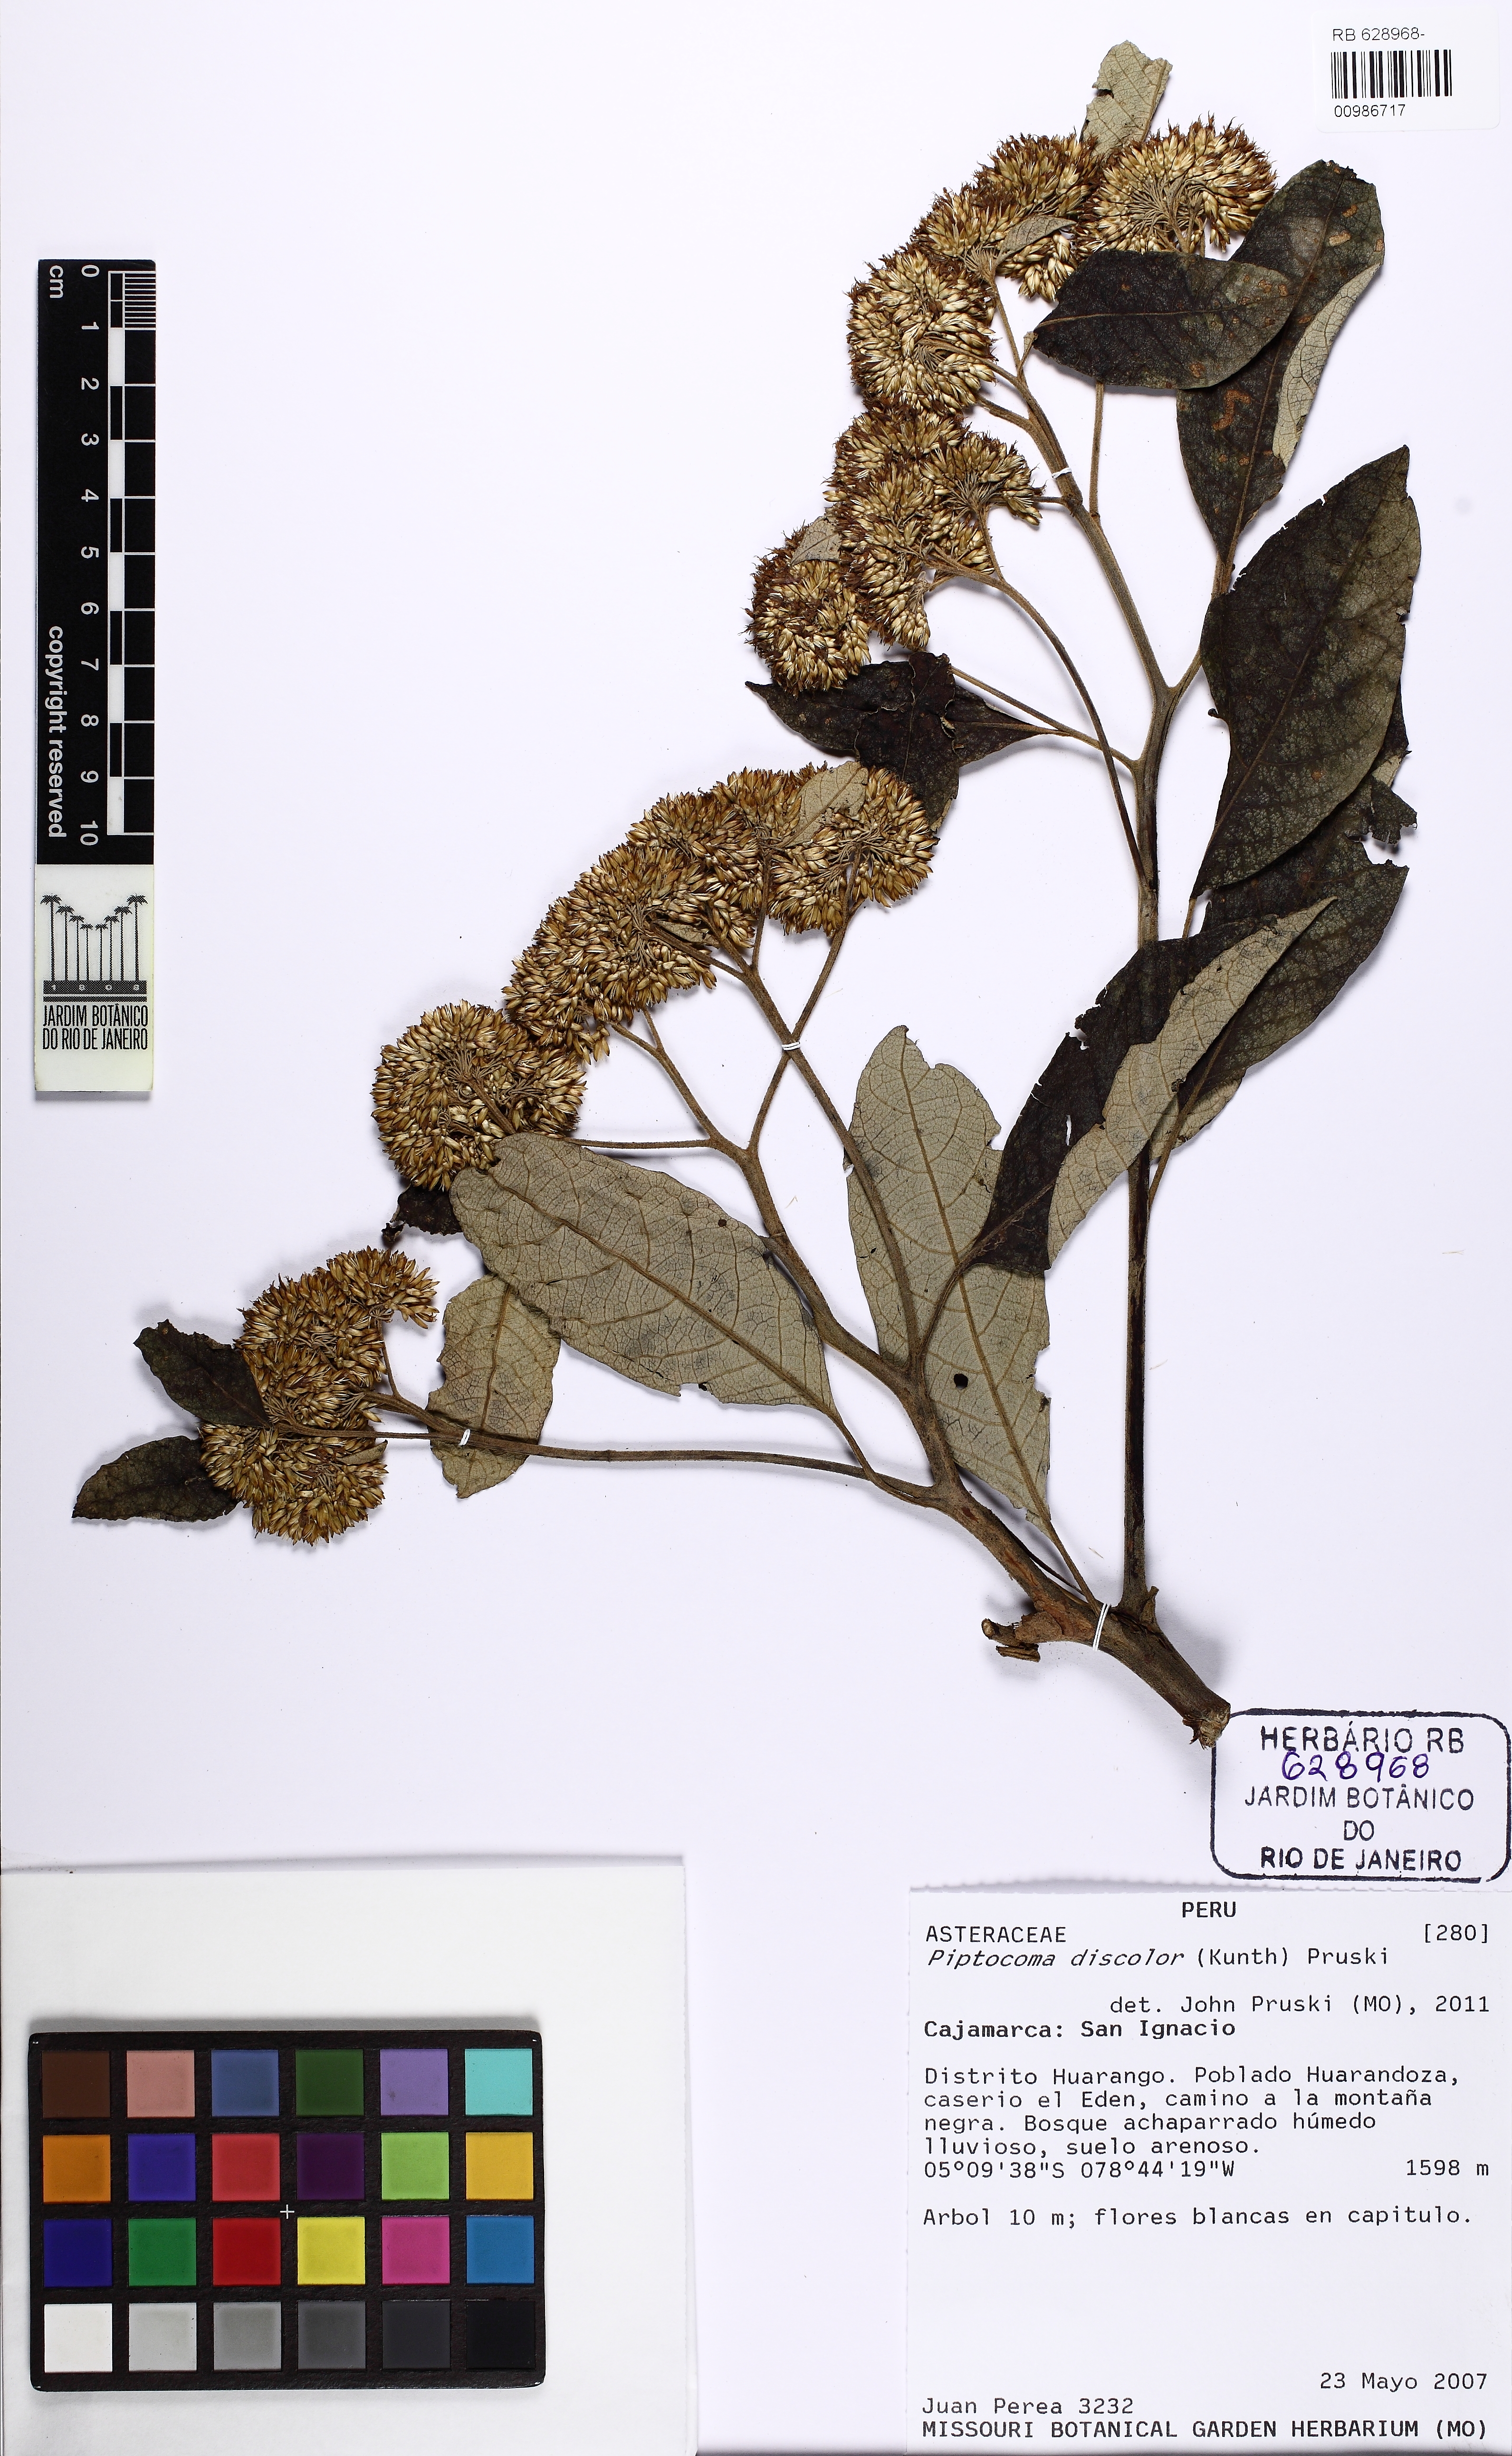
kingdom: Plantae
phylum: Tracheophyta
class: Magnoliopsida
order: Asterales
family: Asteraceae
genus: Piptocoma
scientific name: Piptocoma discolor
